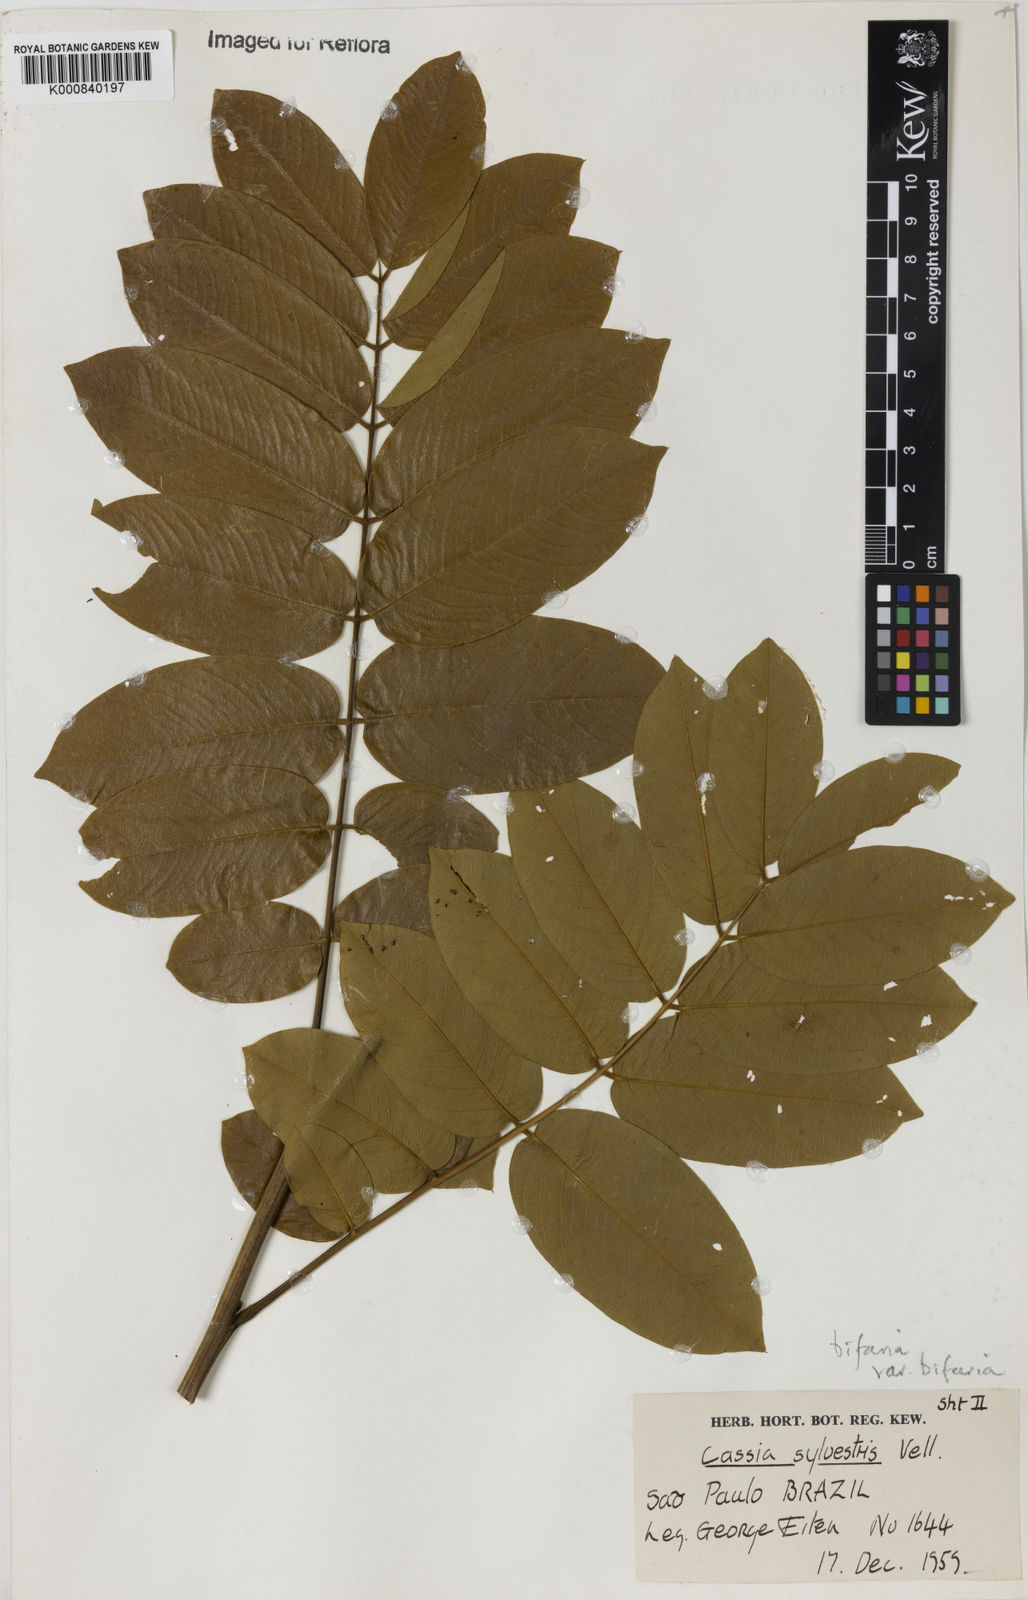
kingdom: Plantae
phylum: Tracheophyta
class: Magnoliopsida
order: Fabales
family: Fabaceae
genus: Senna
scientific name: Senna silvestris
